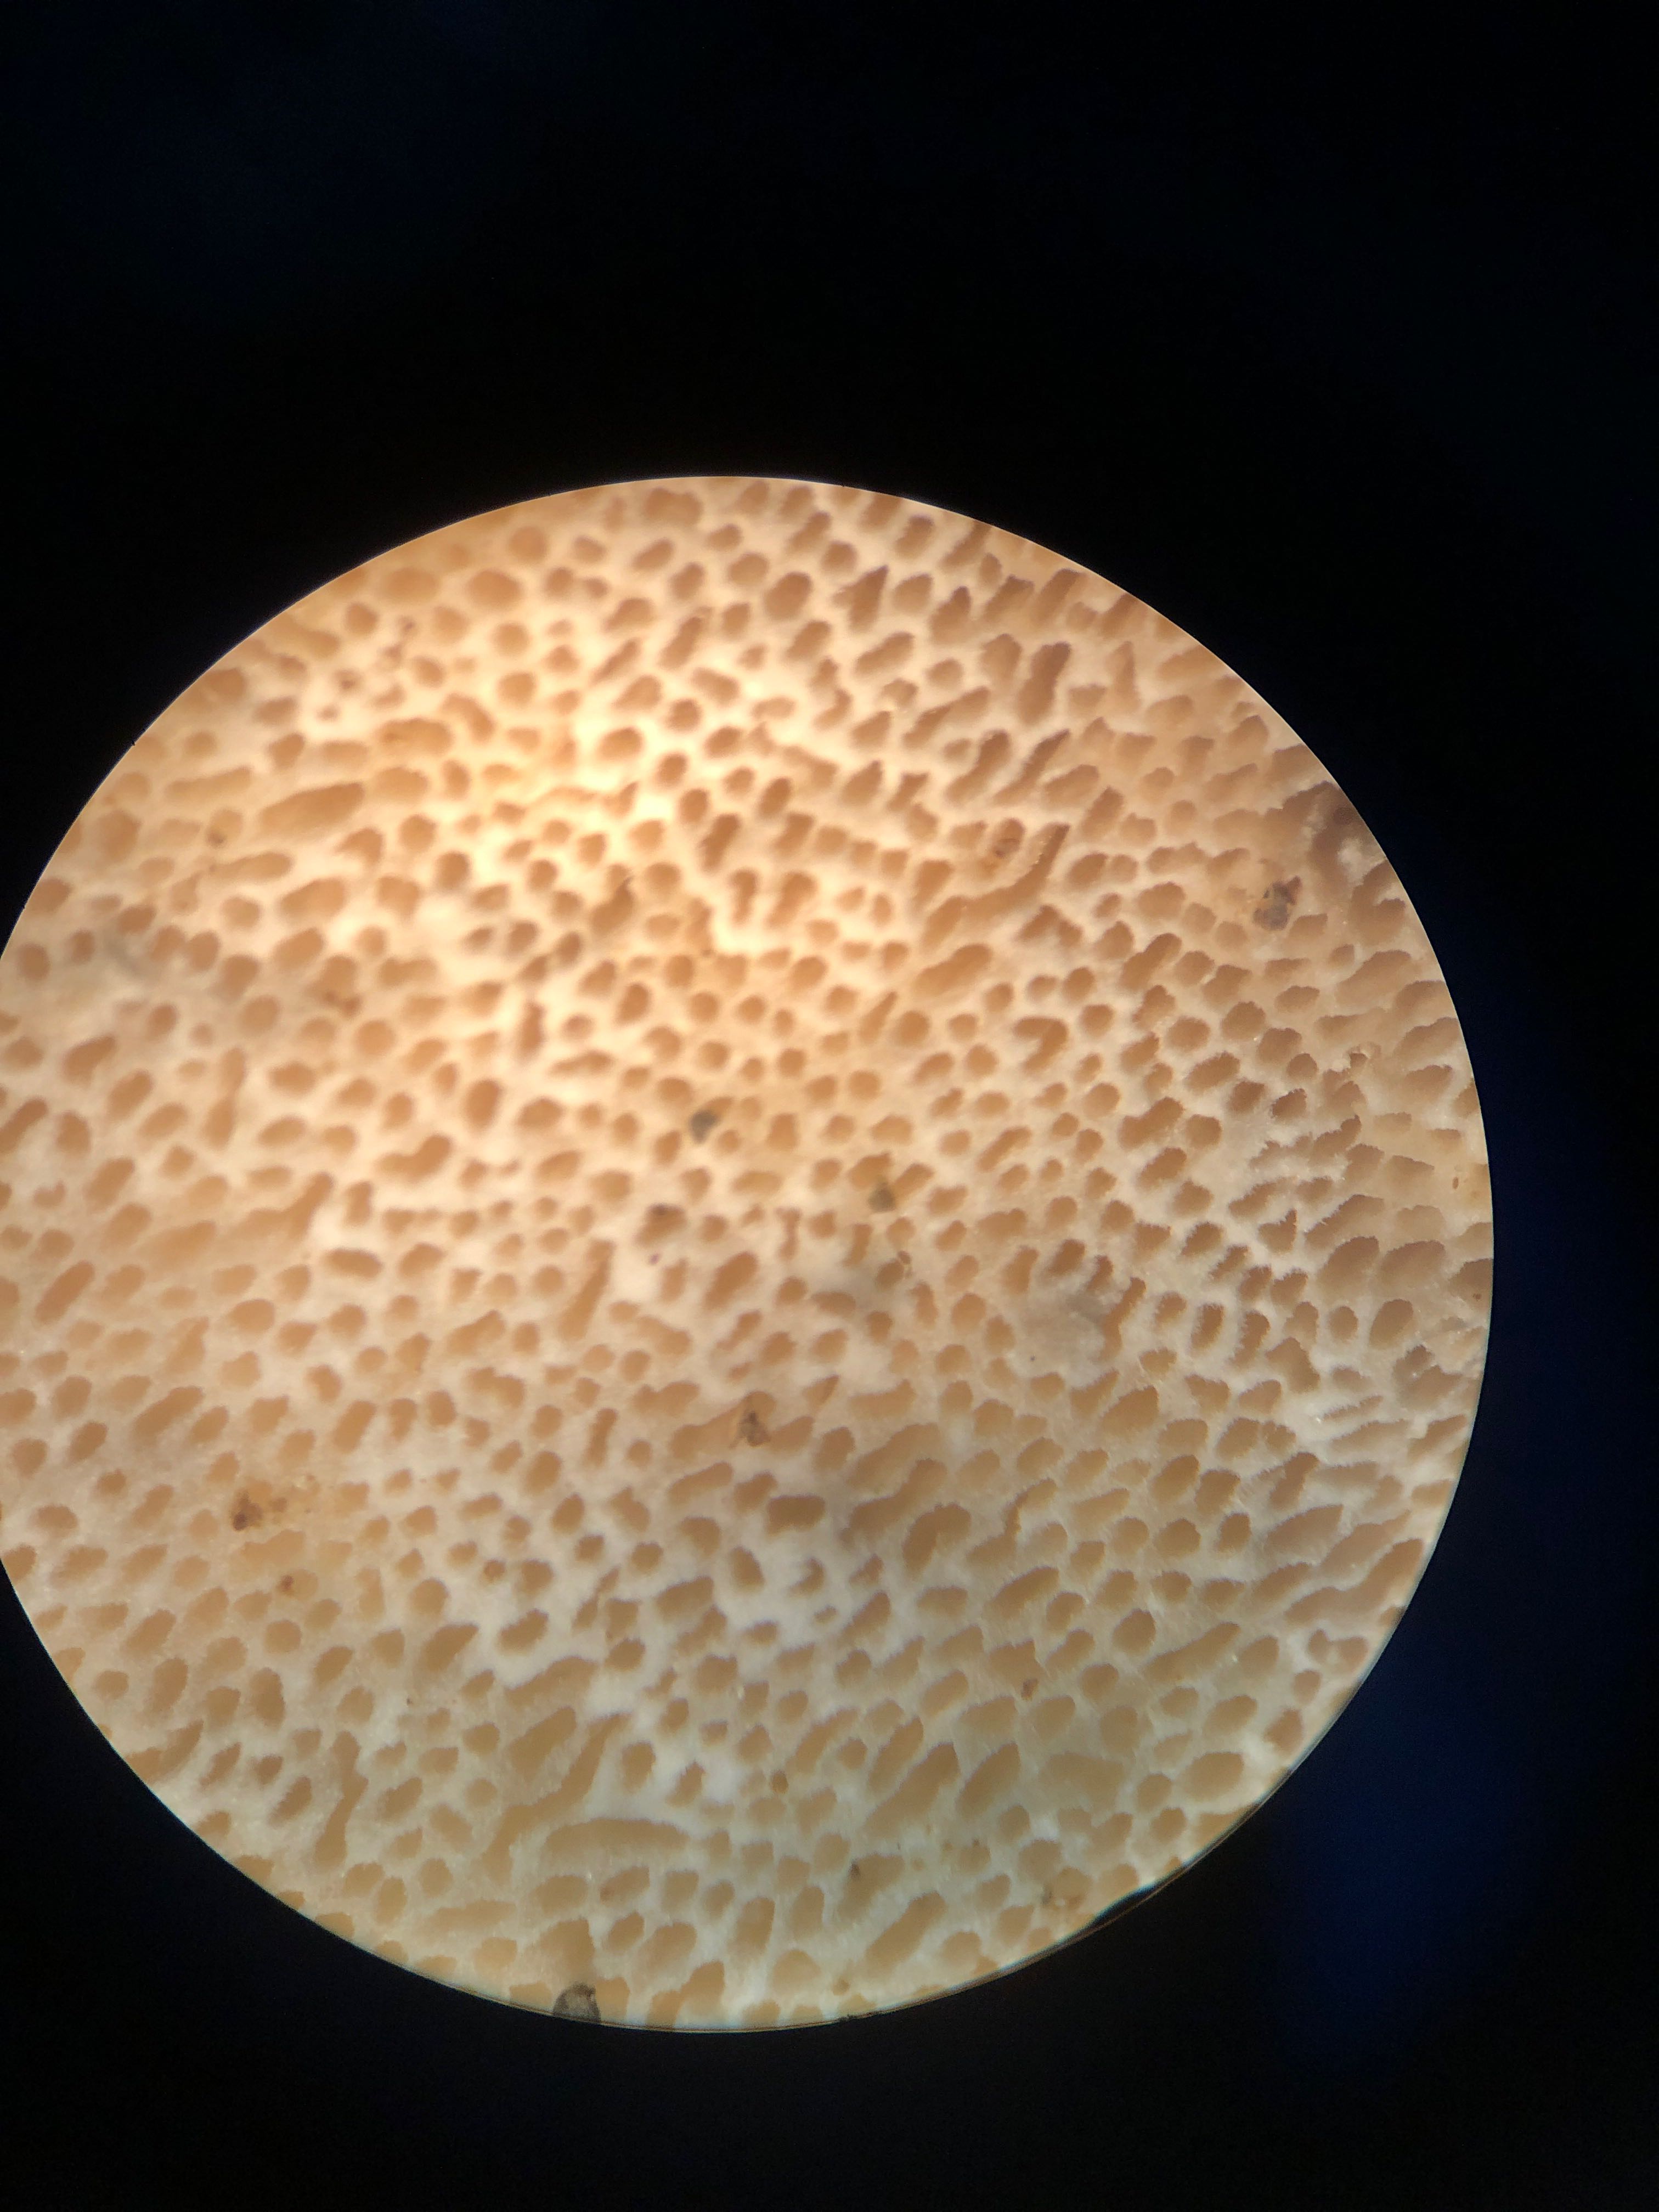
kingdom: Fungi
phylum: Basidiomycota
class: Agaricomycetes
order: Polyporales
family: Gelatoporiaceae
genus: Cinereomyces
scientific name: Cinereomyces lindbladii
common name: almindelig gråporesvamp
